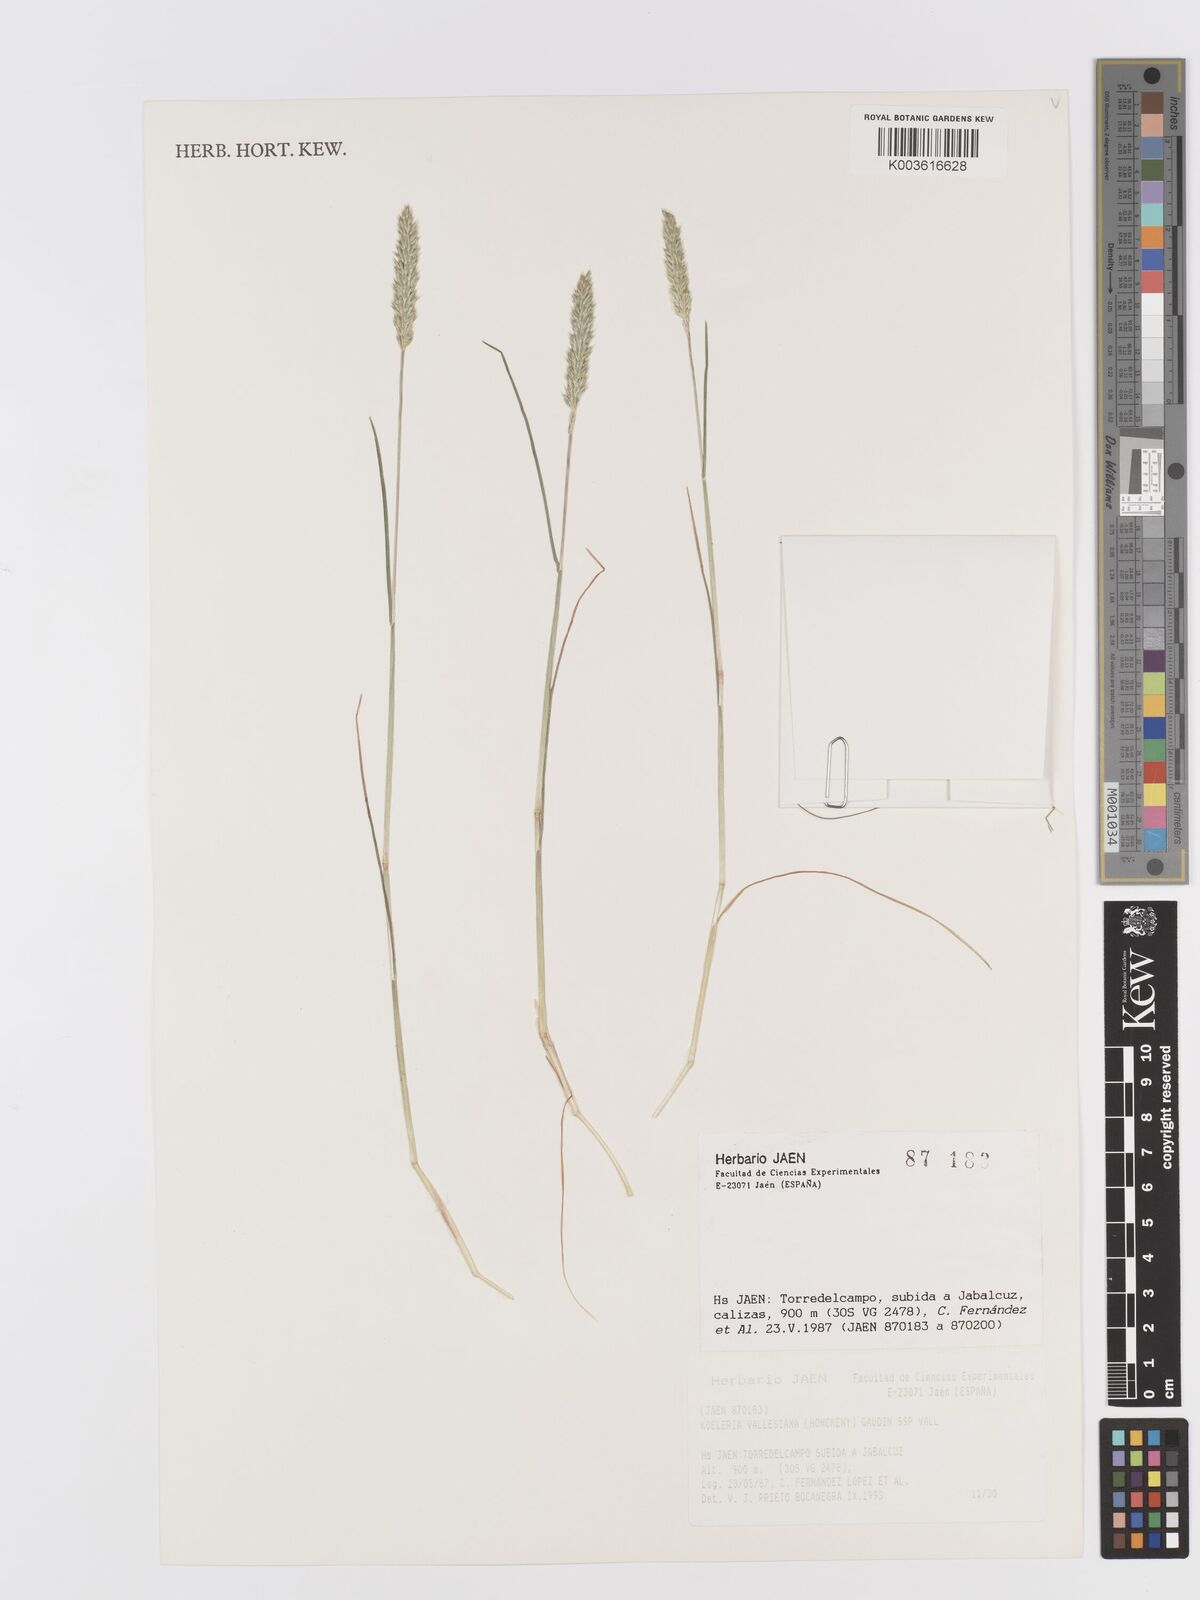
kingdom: Plantae
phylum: Tracheophyta
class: Liliopsida
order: Poales
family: Poaceae
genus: Koeleria
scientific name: Koeleria vallesiana
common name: Somerset hair-grass
